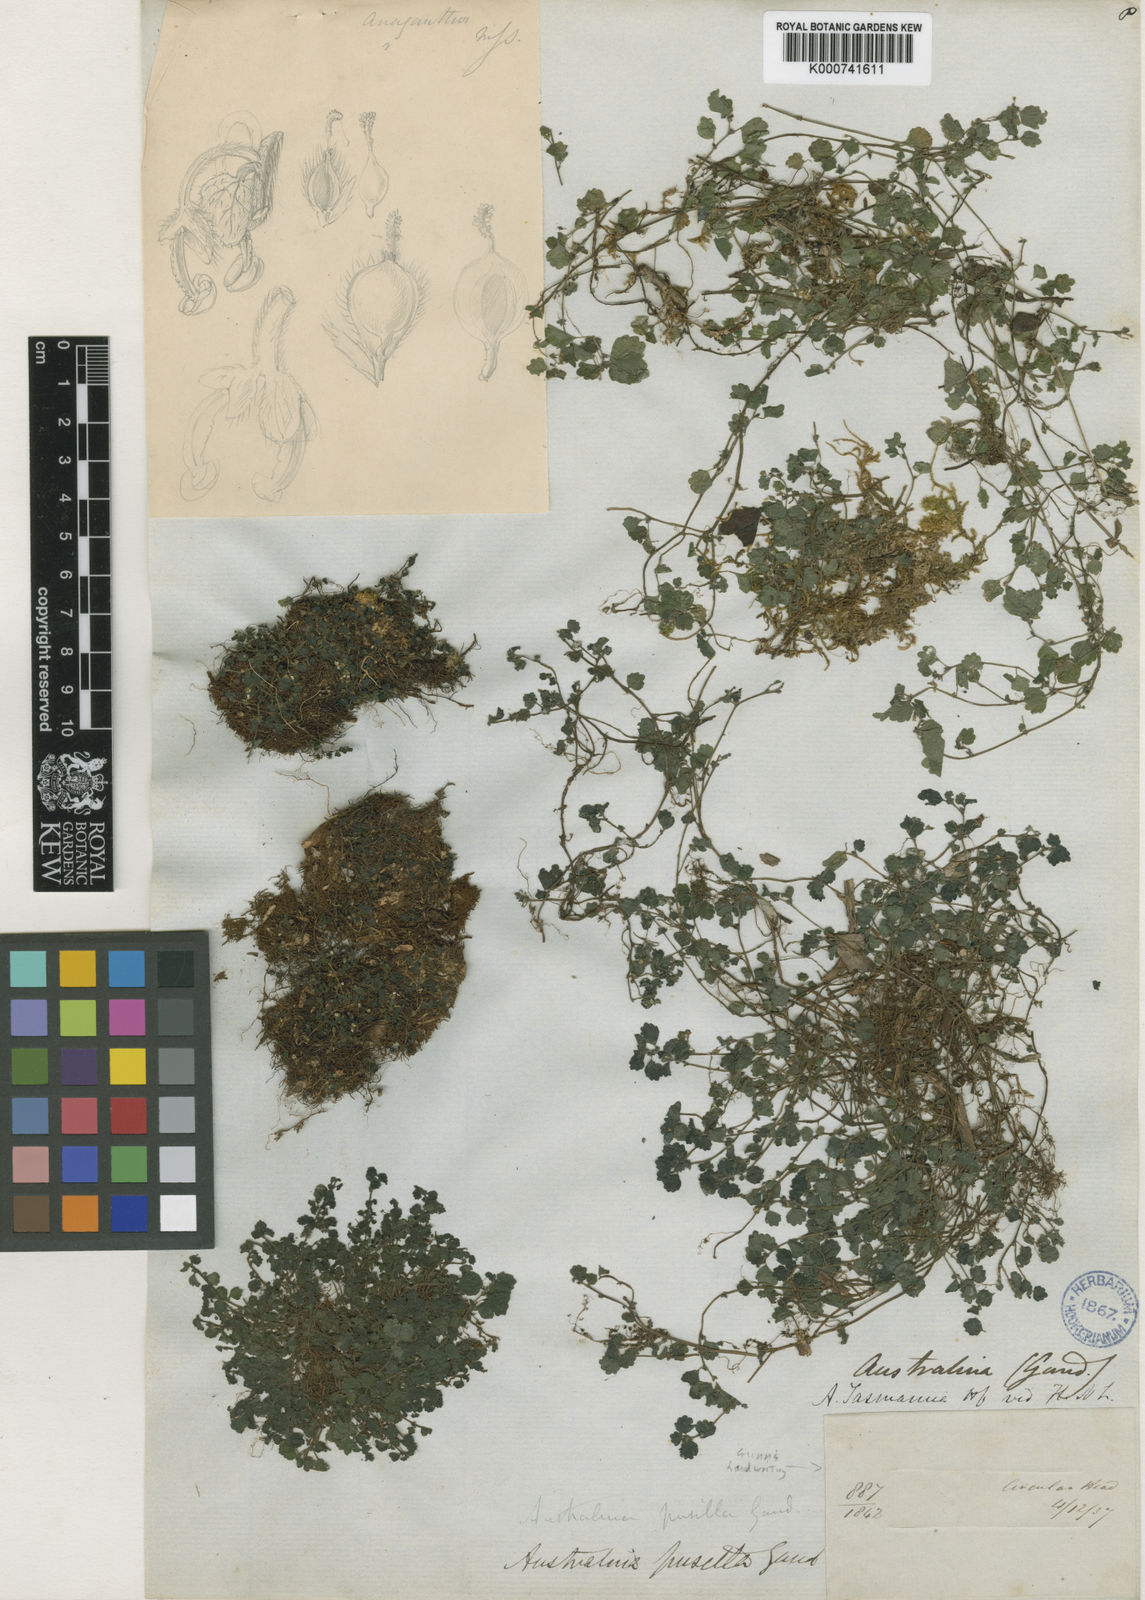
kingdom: Plantae
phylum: Tracheophyta
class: Magnoliopsida
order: Rosales
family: Urticaceae
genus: Australina
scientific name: Australina
